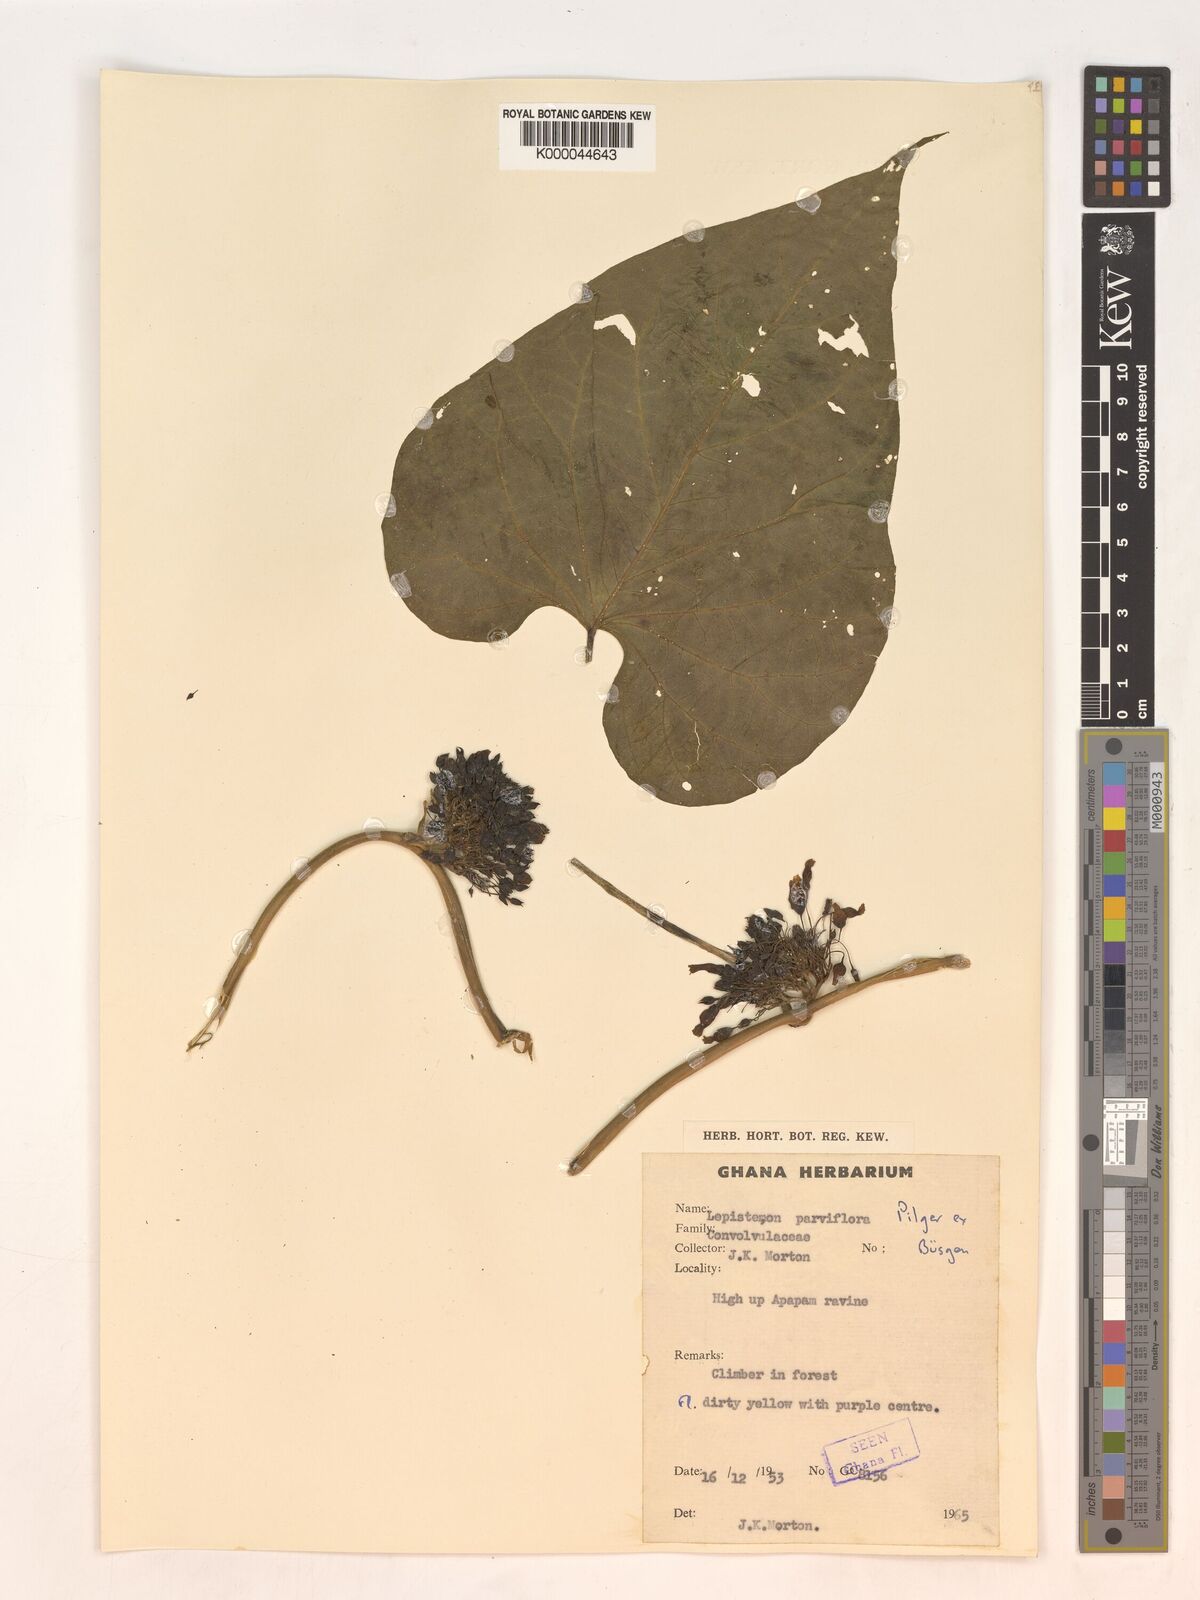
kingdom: Plantae
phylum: Tracheophyta
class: Magnoliopsida
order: Solanales
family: Convolvulaceae
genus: Lepistemon
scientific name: Lepistemon
